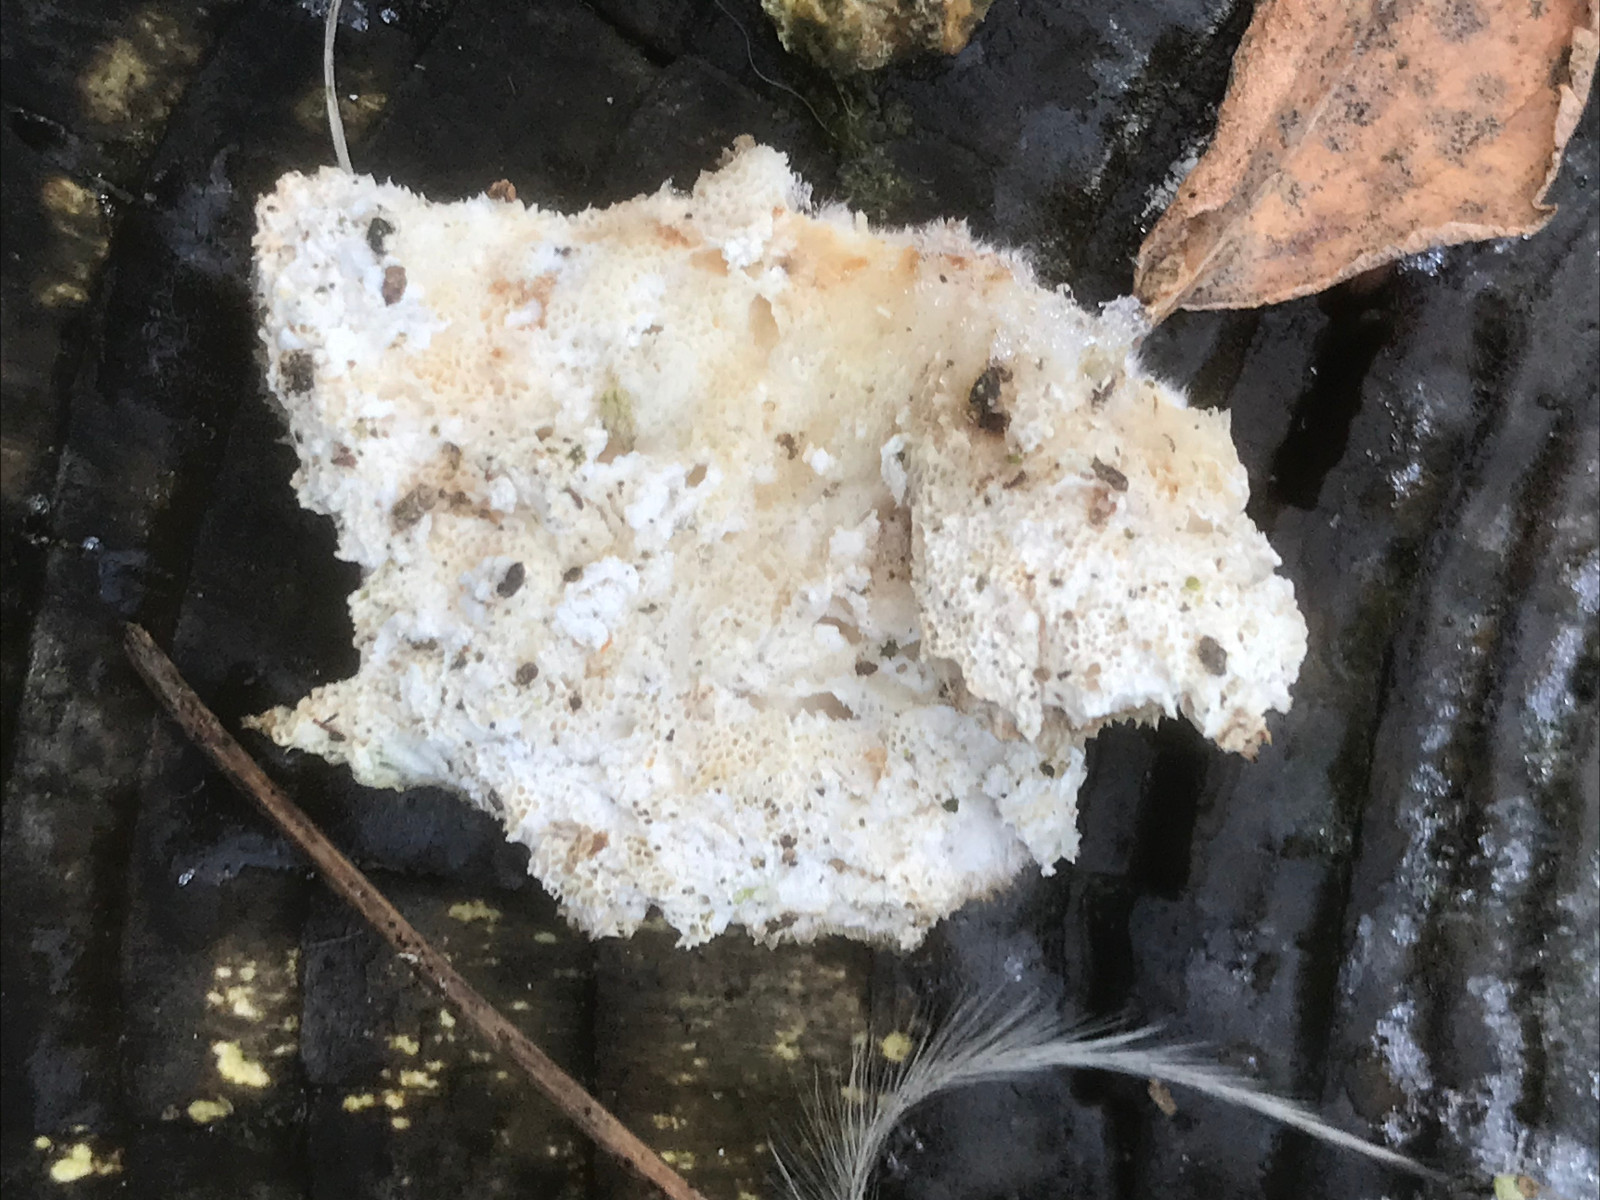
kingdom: Fungi
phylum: Basidiomycota
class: Agaricomycetes
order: Polyporales
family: Polyporaceae
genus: Trametes
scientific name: Trametes
